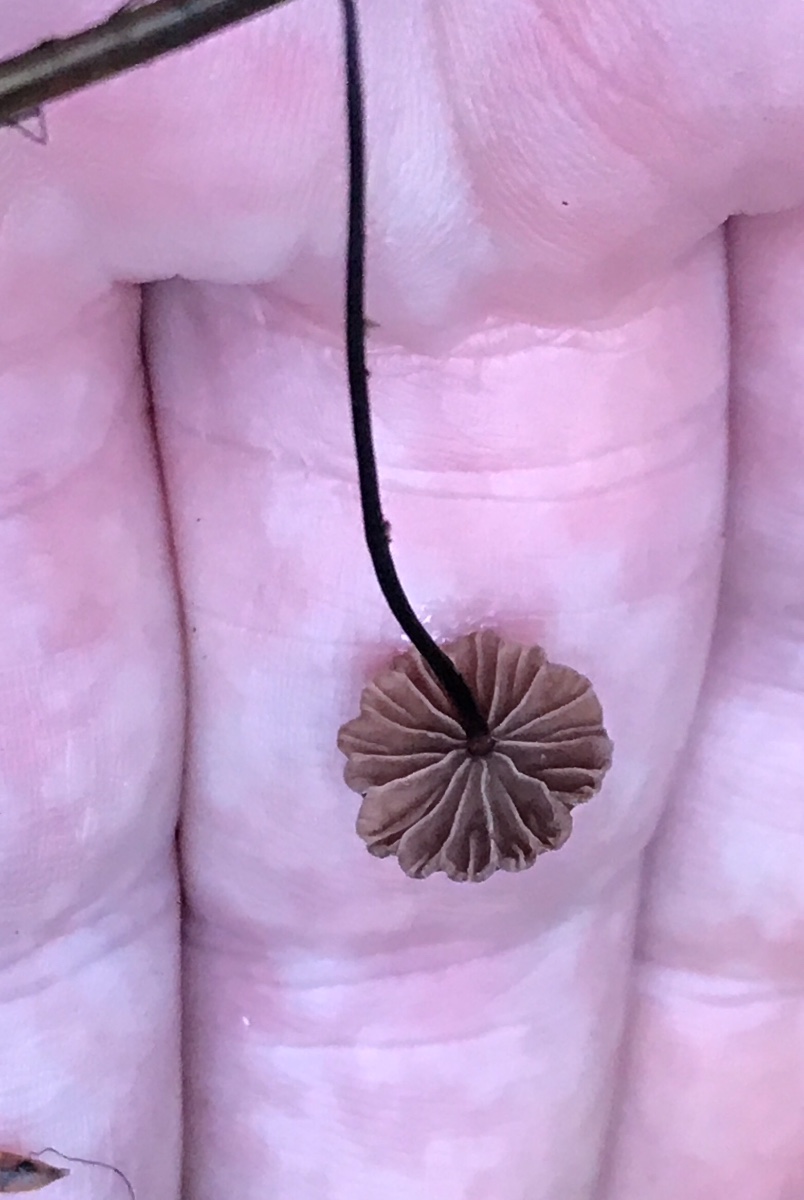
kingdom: Fungi
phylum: Basidiomycota
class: Agaricomycetes
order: Agaricales
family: Omphalotaceae
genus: Gymnopus
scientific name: Gymnopus androsaceus
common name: trådstokket fladhat
